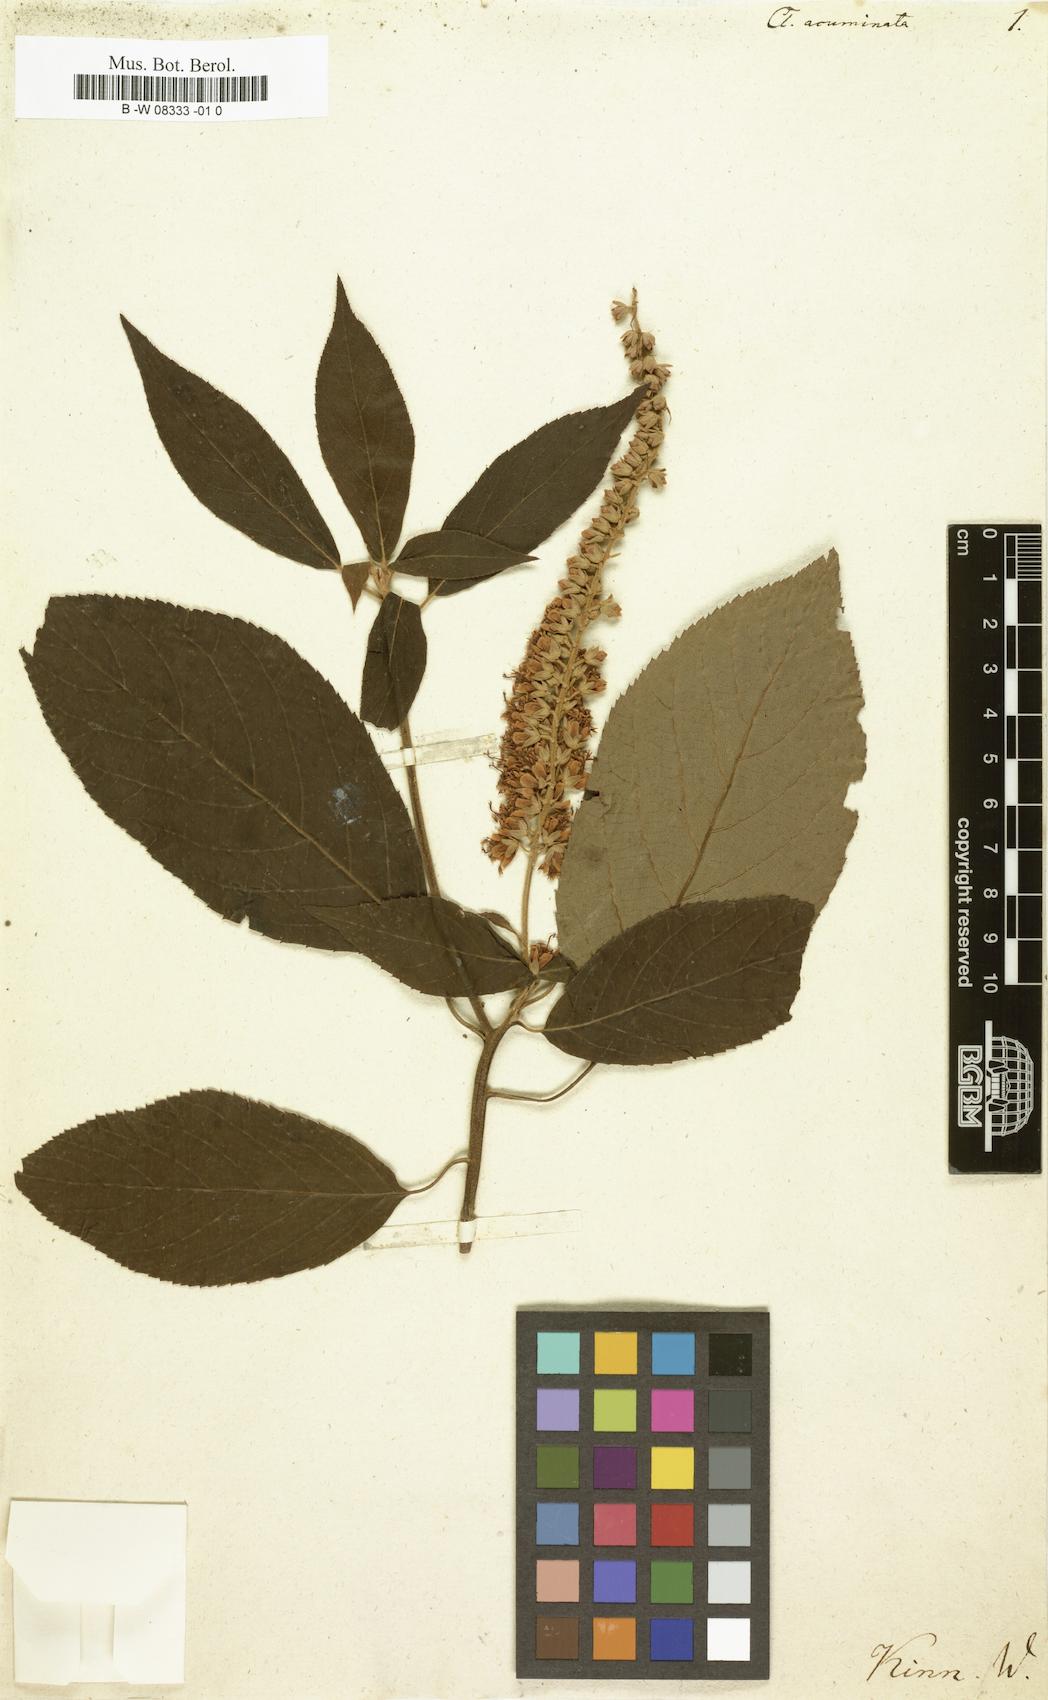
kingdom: Plantae
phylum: Tracheophyta
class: Magnoliopsida
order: Ericales
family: Clethraceae
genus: Clethra
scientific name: Clethra acuminata
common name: Mountain sweet pepperbush
